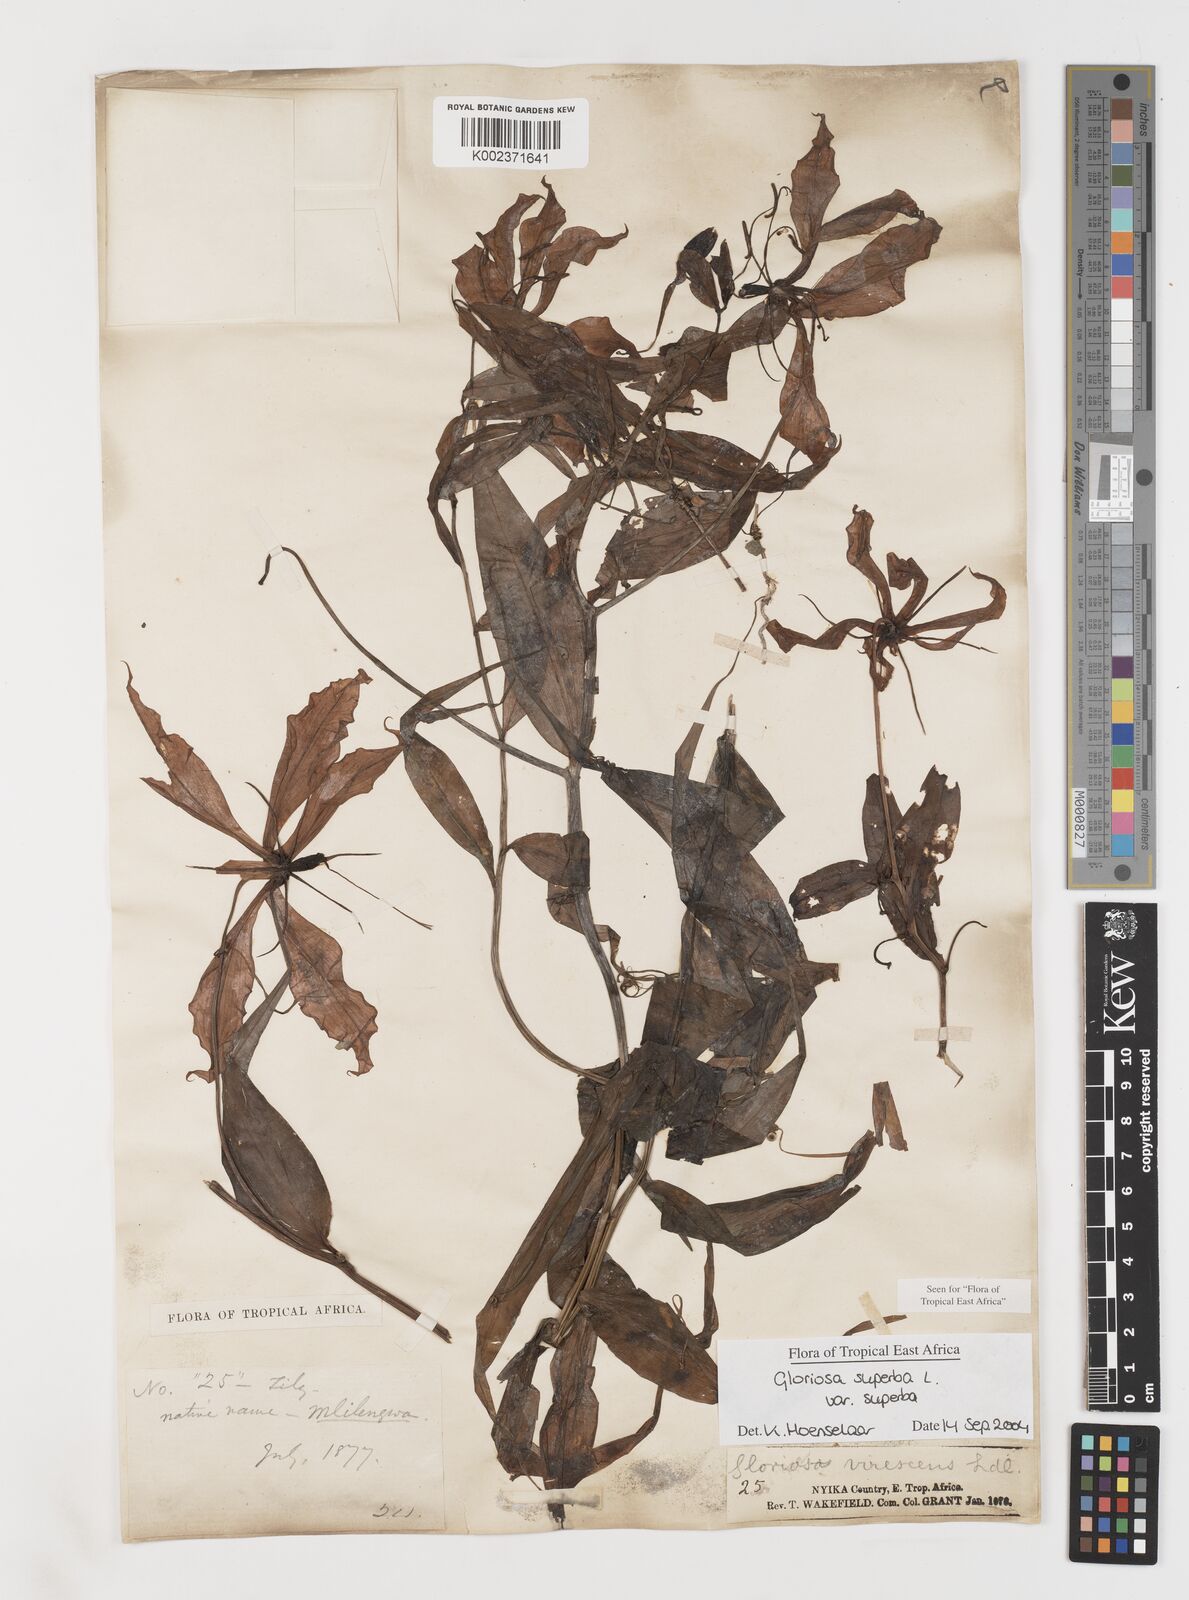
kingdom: Plantae
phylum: Tracheophyta
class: Liliopsida
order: Liliales
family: Colchicaceae
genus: Gloriosa
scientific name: Gloriosa simplex
